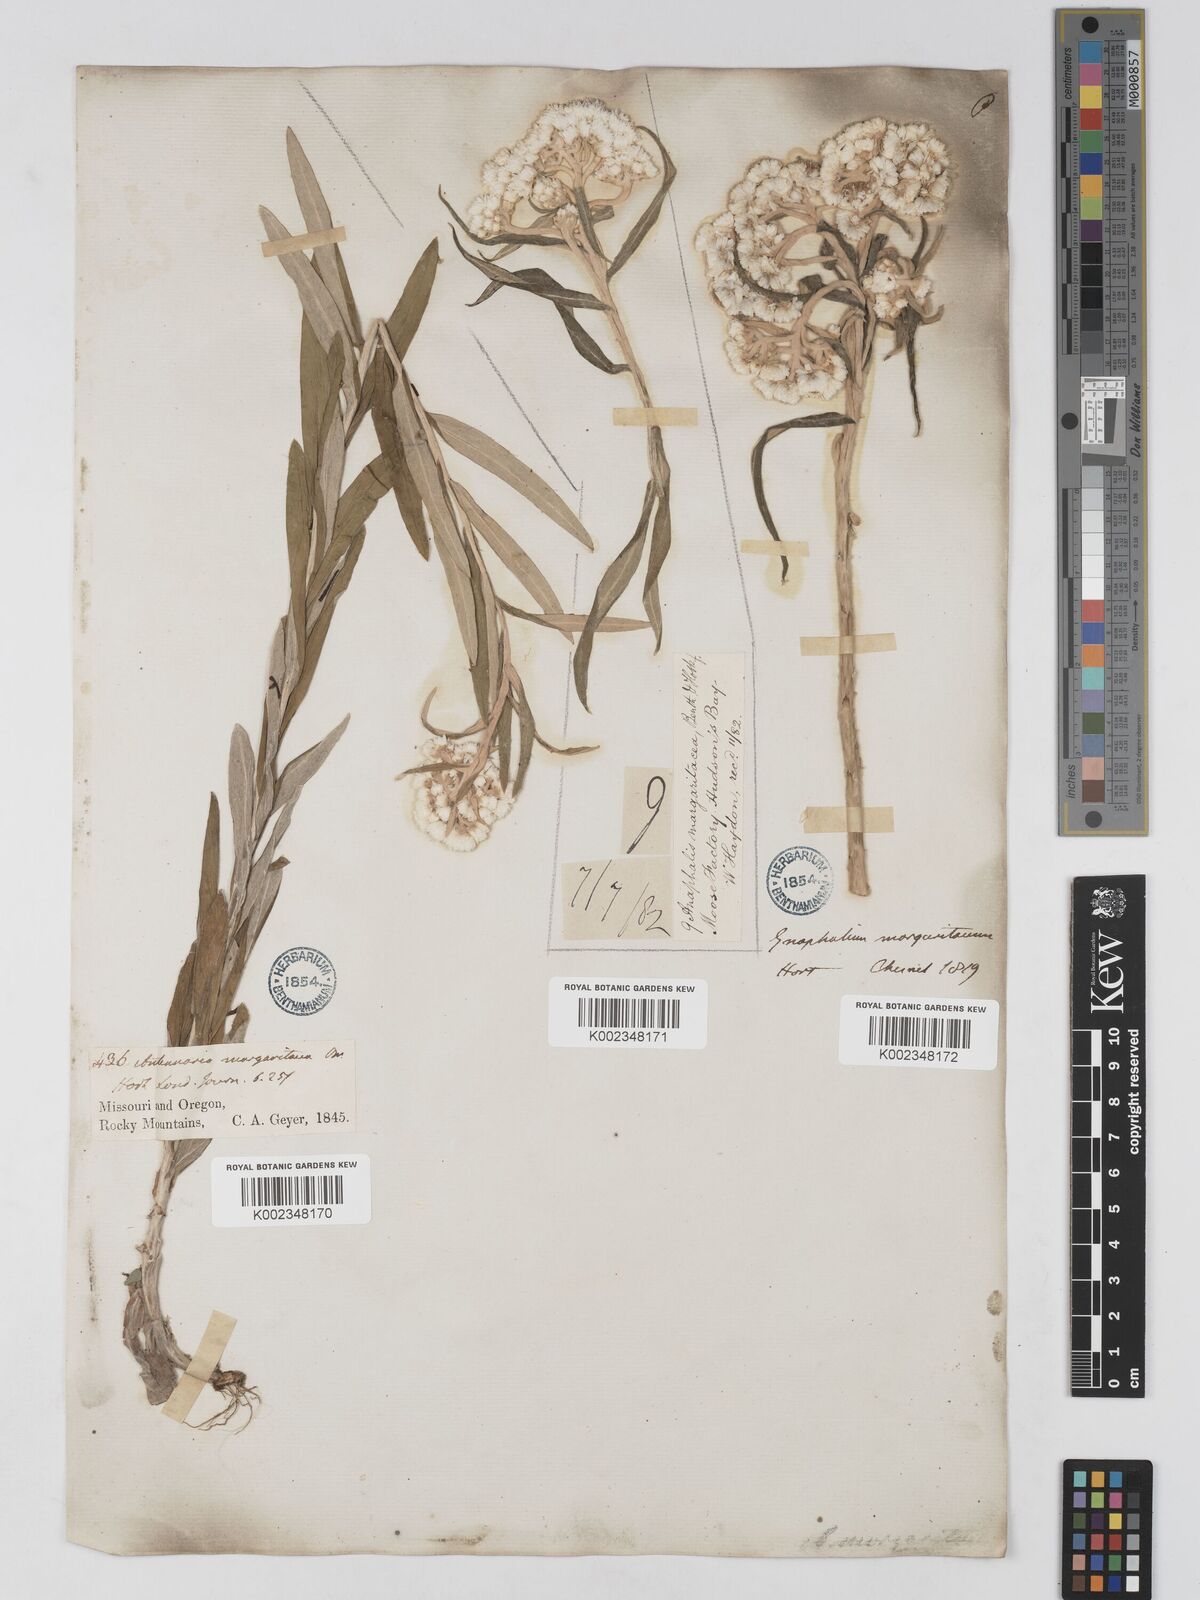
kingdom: Plantae
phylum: Tracheophyta
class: Magnoliopsida
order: Asterales
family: Asteraceae
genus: Anaphalis
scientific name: Anaphalis margaritacea
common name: Pearly everlasting
